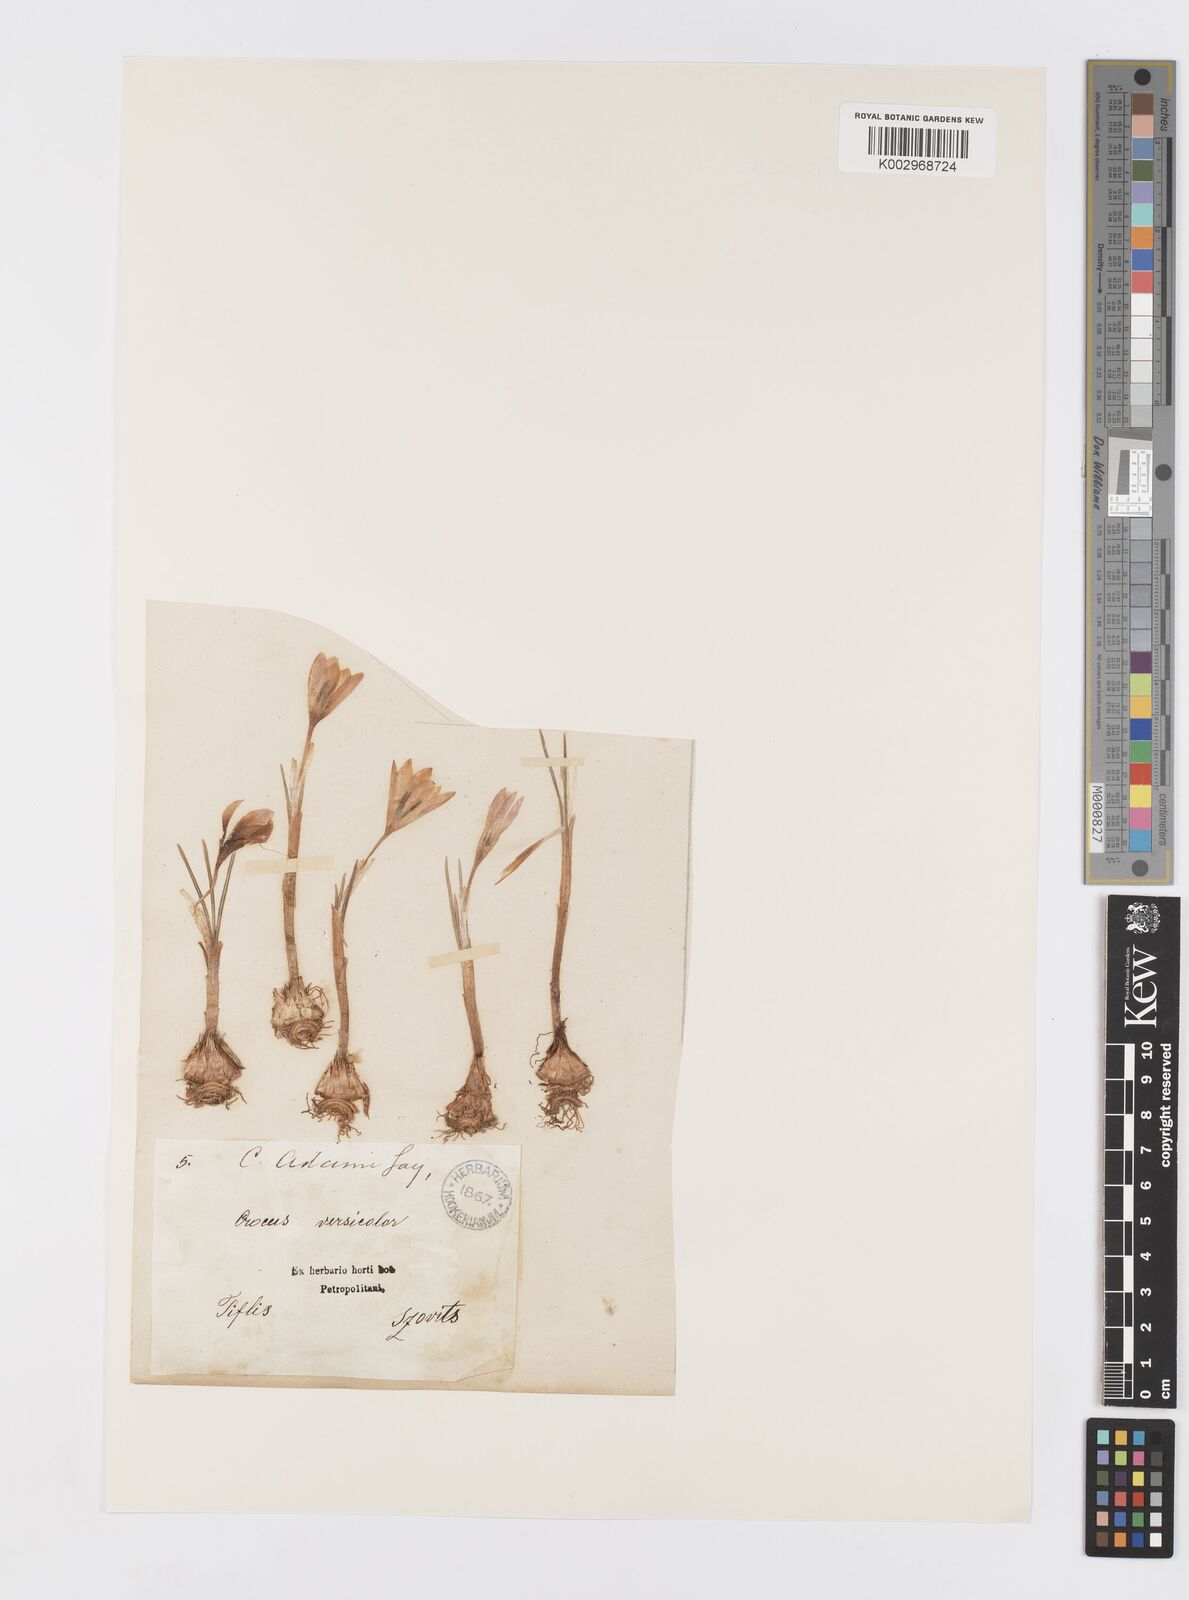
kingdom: Plantae
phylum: Tracheophyta
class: Liliopsida
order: Asparagales
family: Iridaceae
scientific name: Iridaceae
